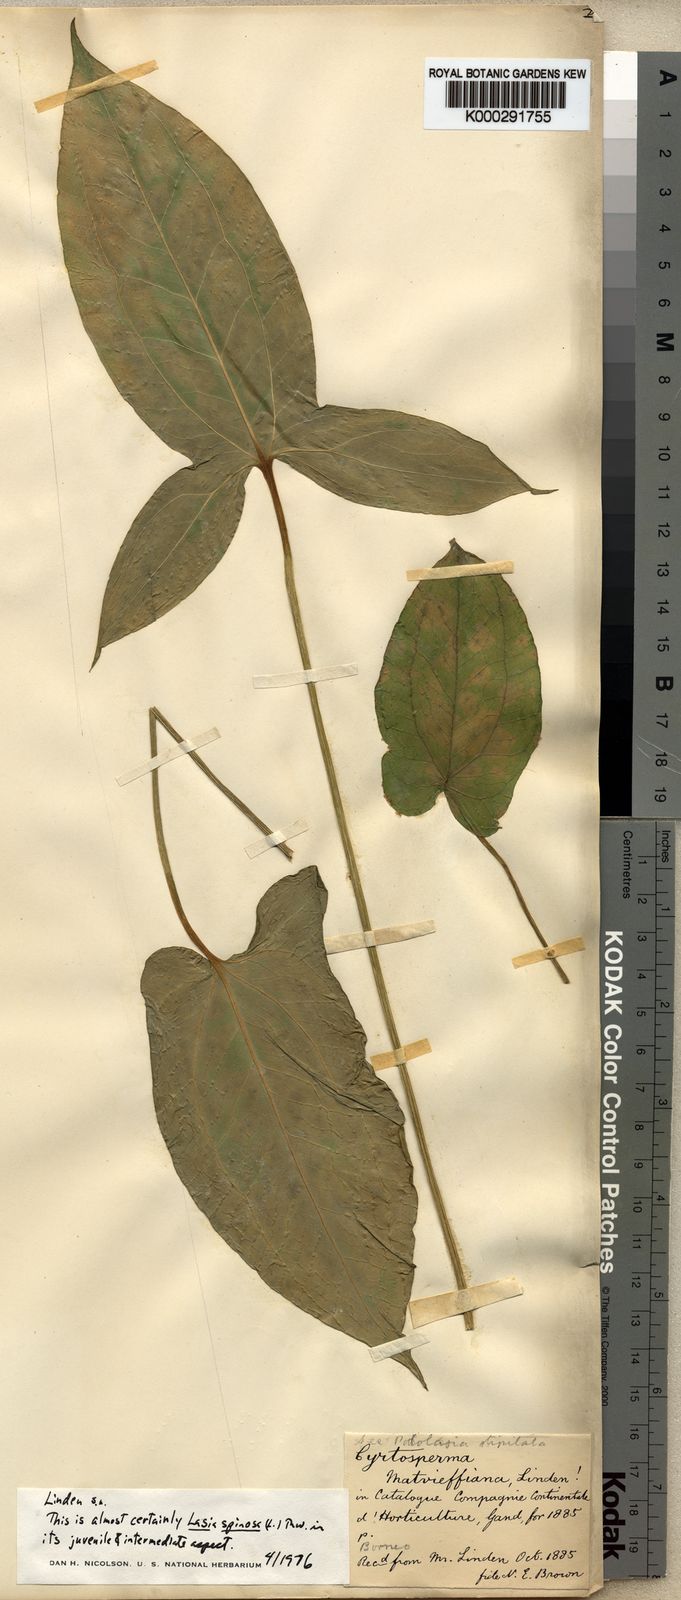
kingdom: Plantae
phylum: Tracheophyta
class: Liliopsida
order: Alismatales
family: Araceae
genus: Lasia
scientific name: Lasia spinosa
